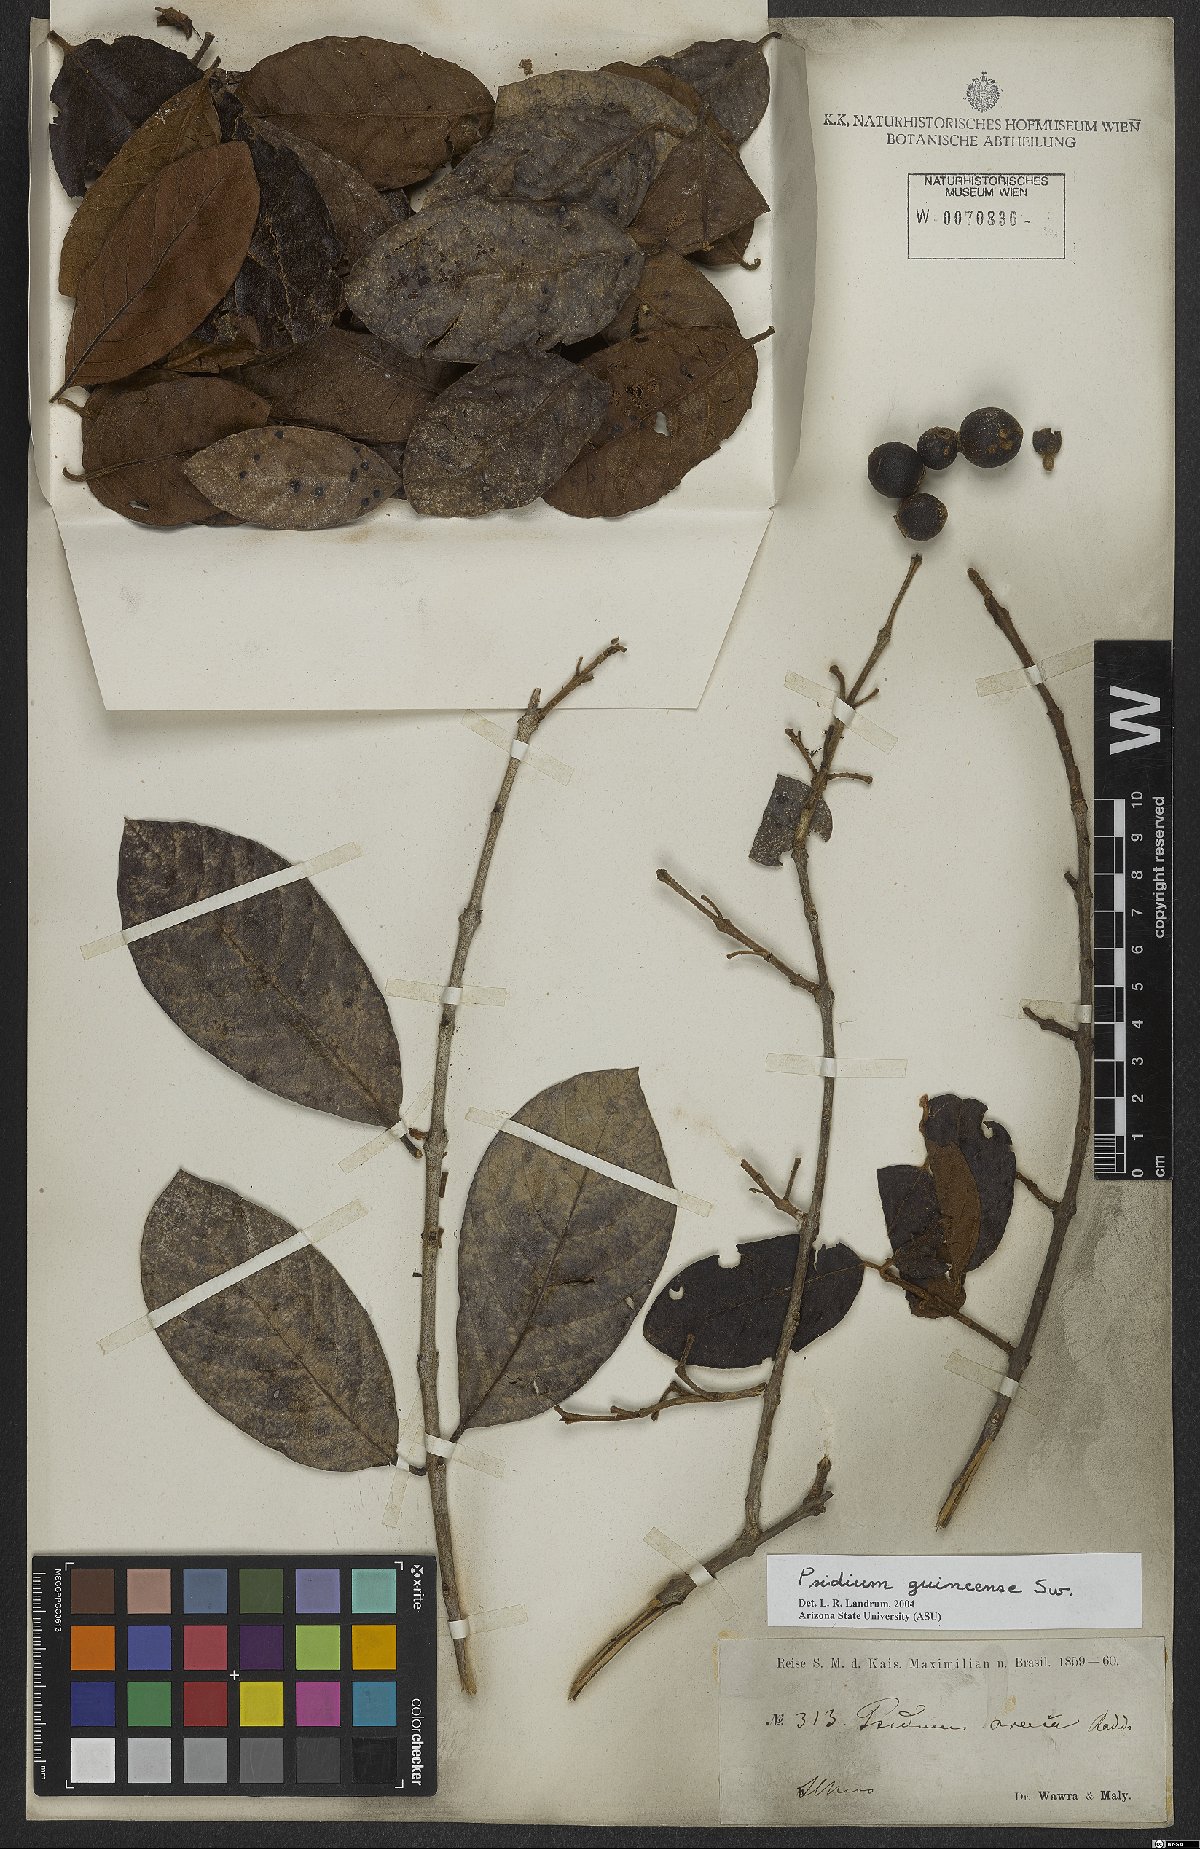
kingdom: Plantae
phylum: Tracheophyta
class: Magnoliopsida
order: Myrtales
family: Myrtaceae
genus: Psidium
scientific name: Psidium guineense
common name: Brazilian guava
